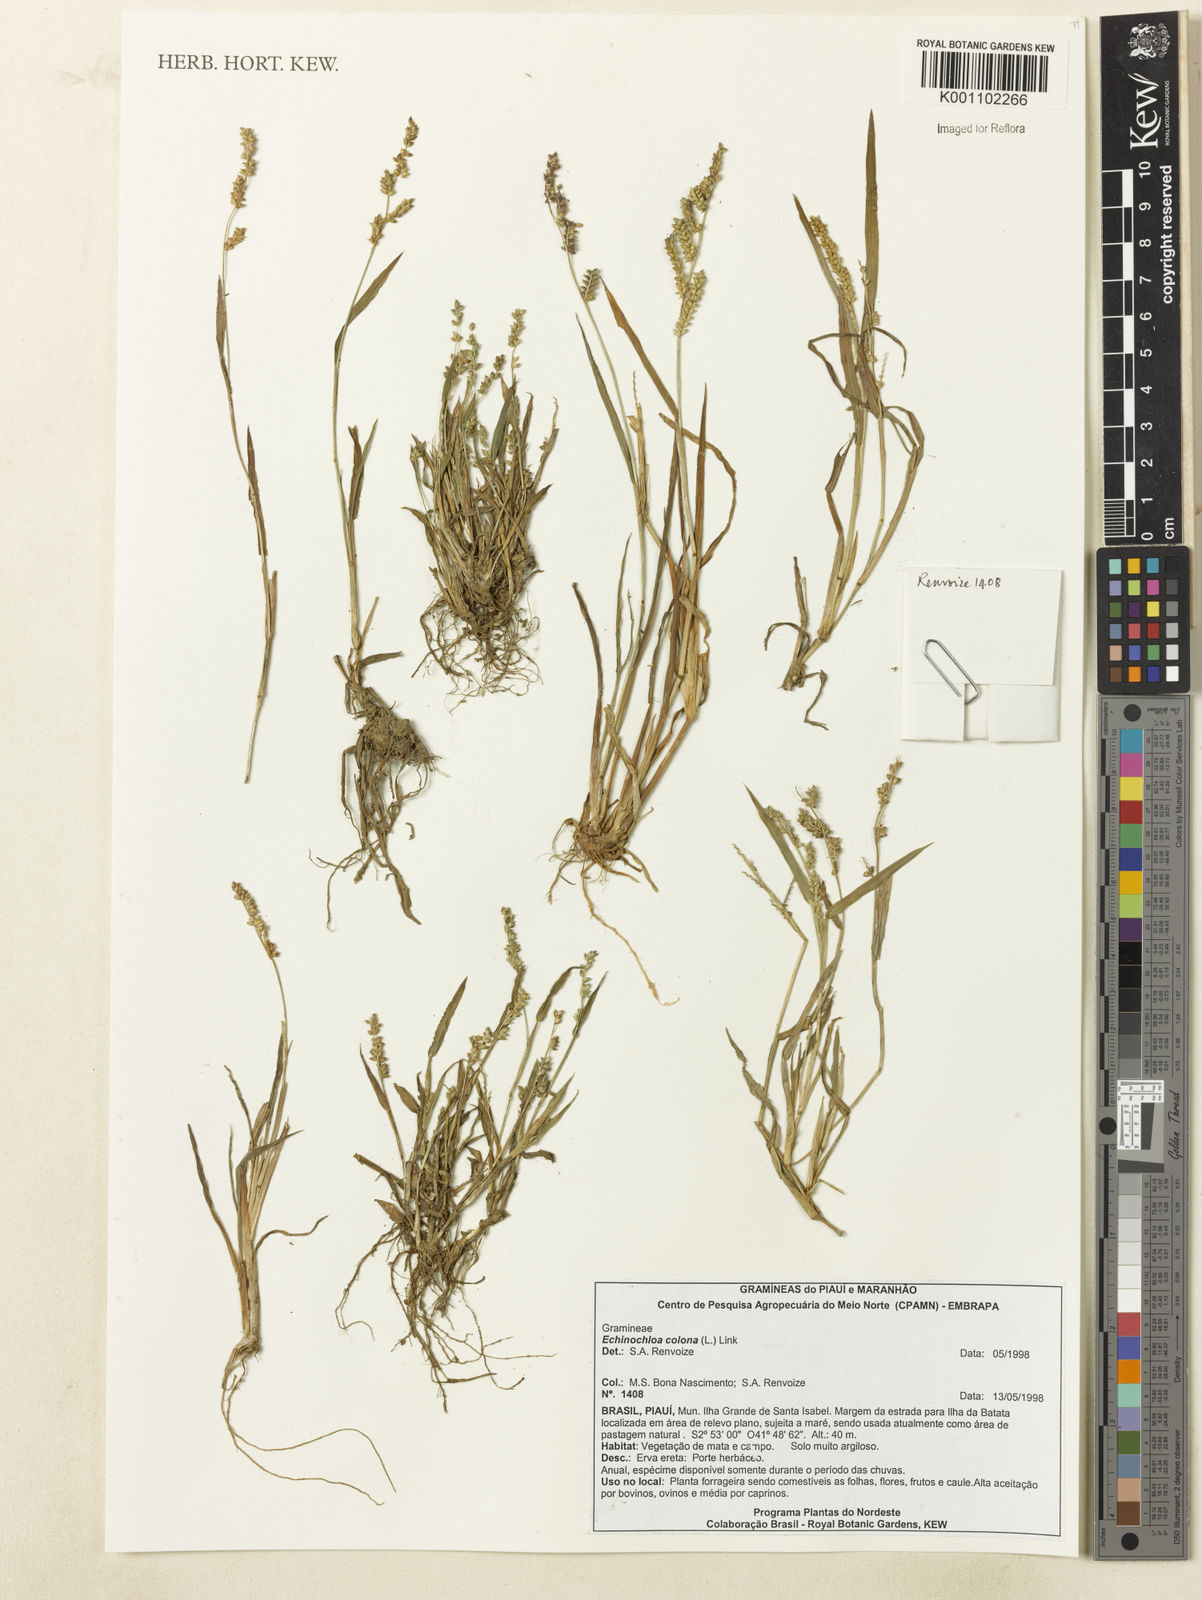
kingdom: Plantae
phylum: Tracheophyta
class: Liliopsida
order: Poales
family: Poaceae
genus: Echinochloa
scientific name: Echinochloa colonum
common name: Jungle rice
